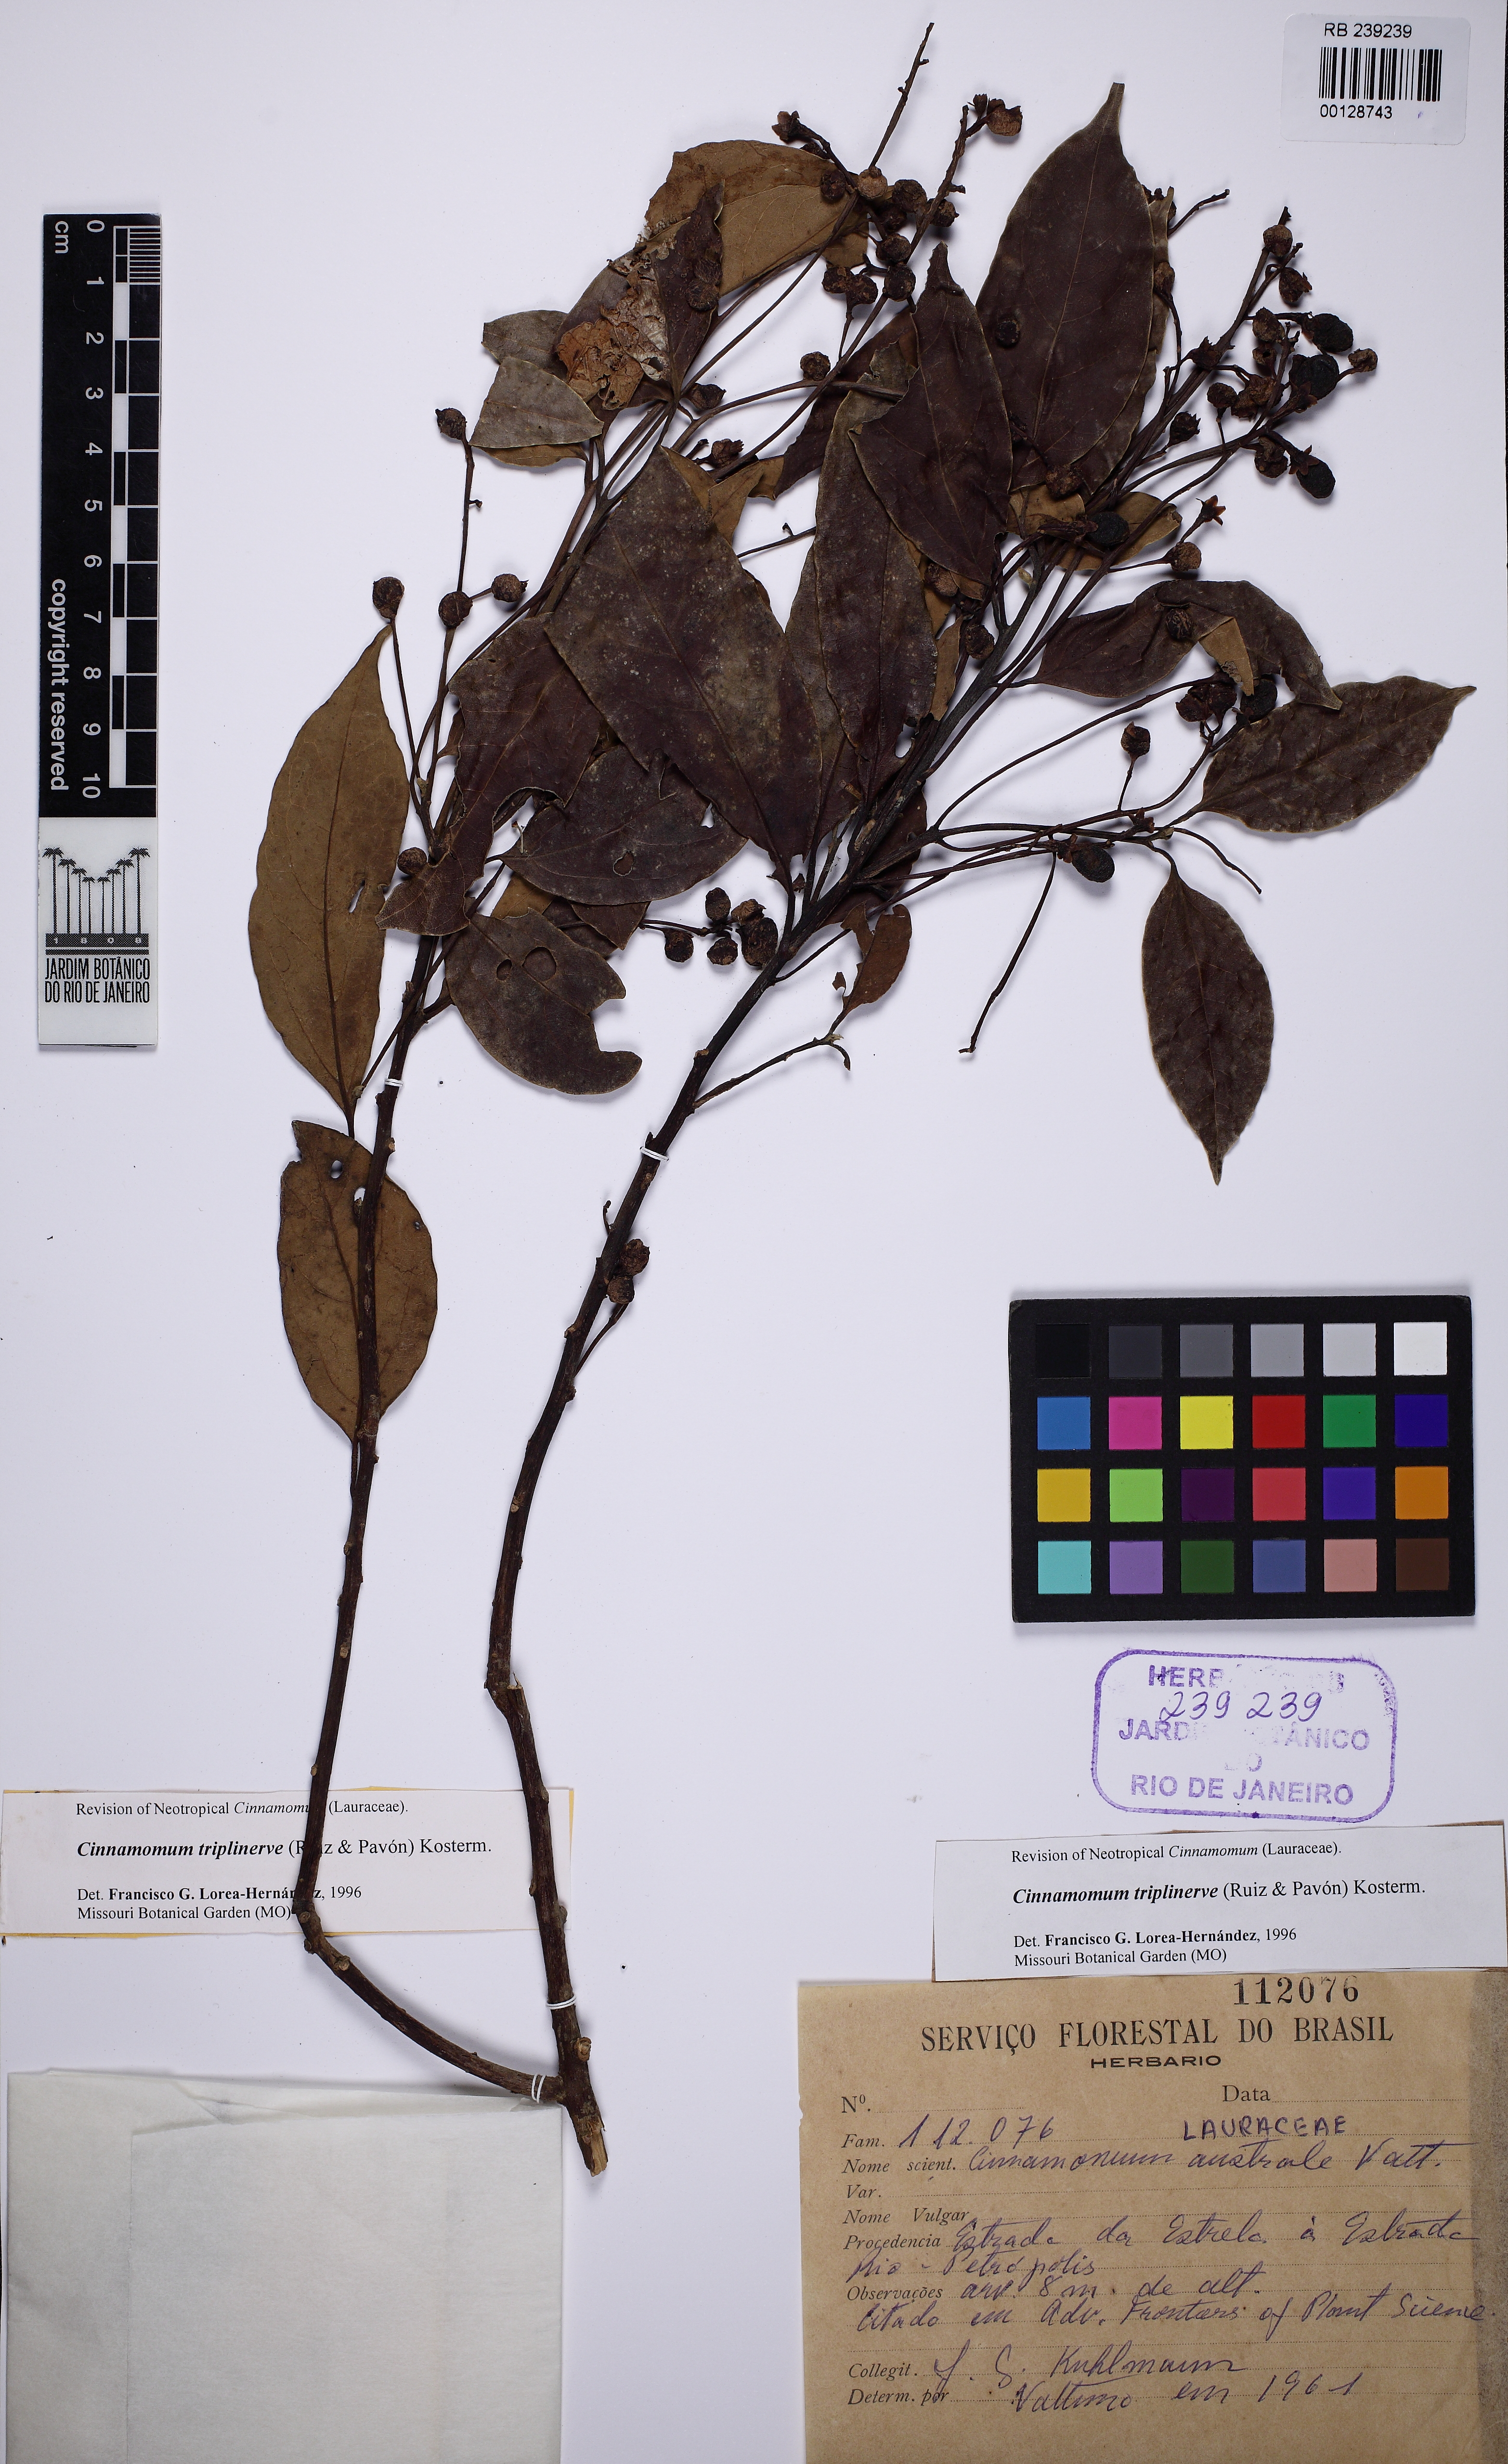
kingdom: Plantae
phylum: Tracheophyta
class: Magnoliopsida
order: Laurales
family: Lauraceae
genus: Aiouea
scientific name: Aiouea montana
